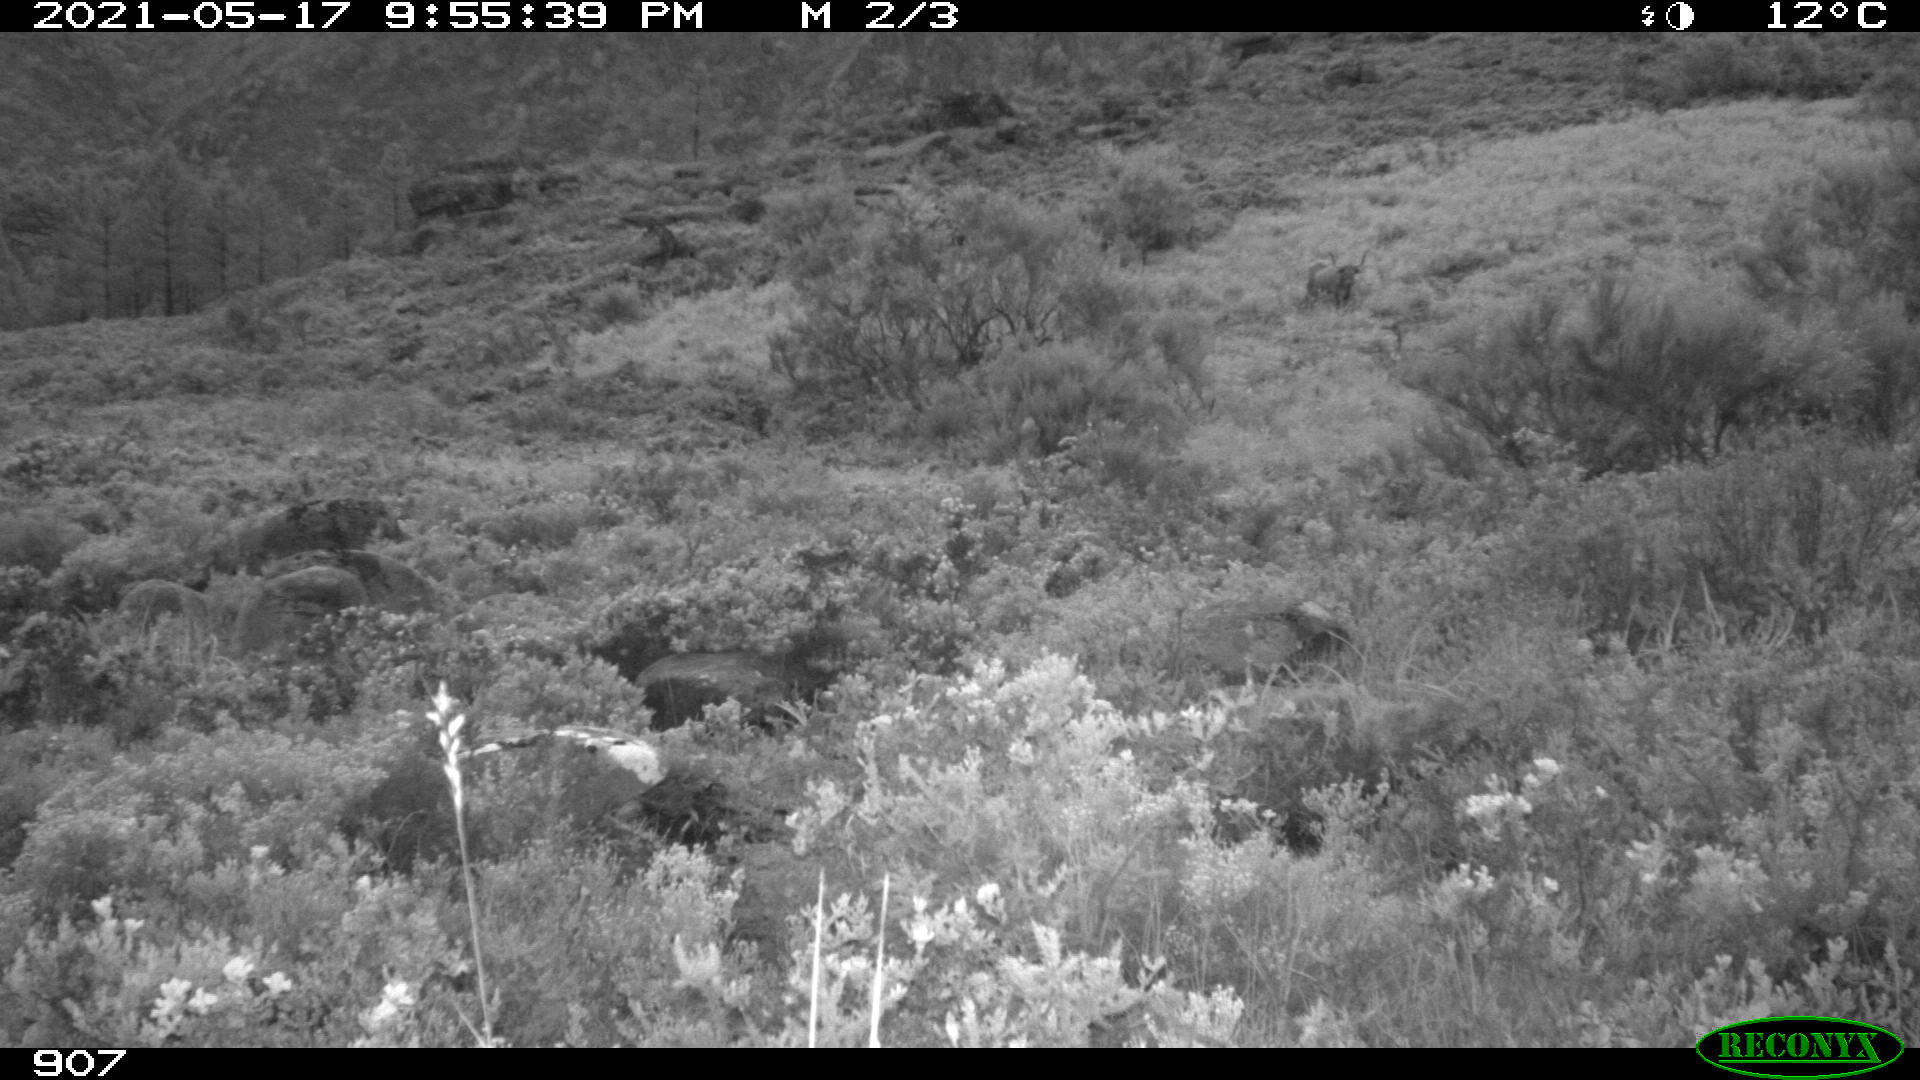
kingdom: Animalia
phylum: Chordata
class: Mammalia
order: Artiodactyla
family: Bovidae
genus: Bos
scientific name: Bos taurus
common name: Domesticated cattle
